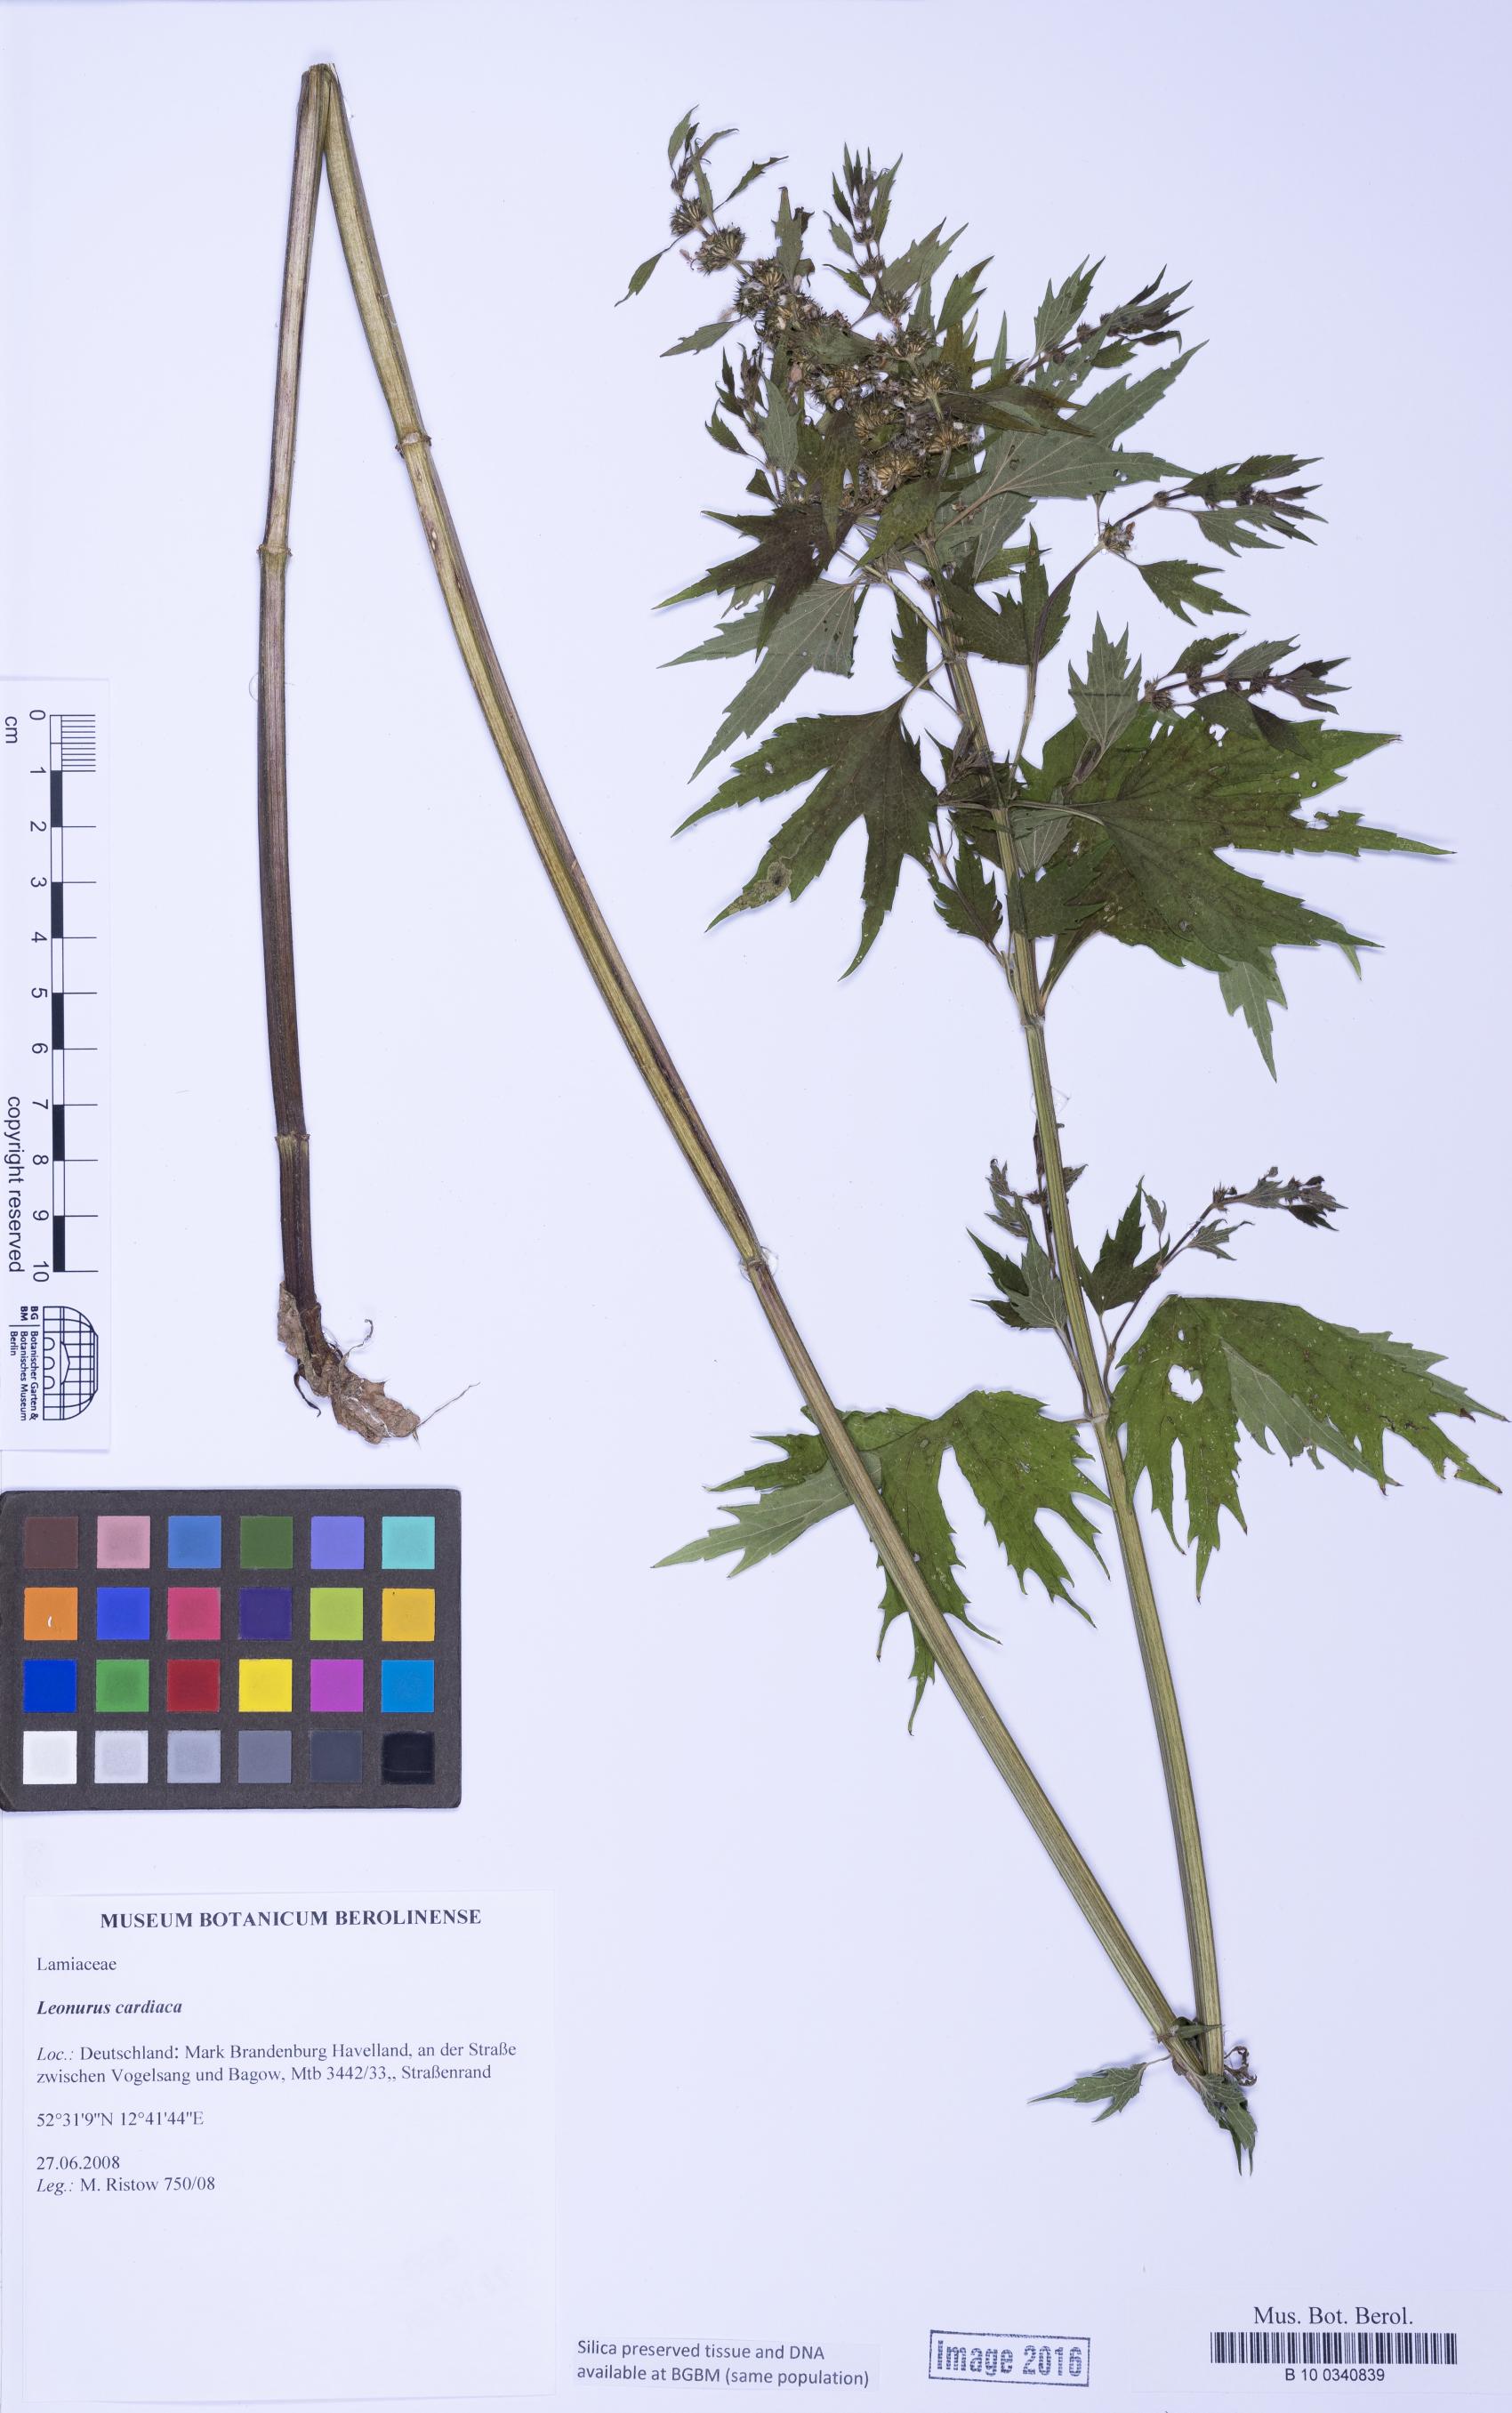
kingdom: Plantae
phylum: Tracheophyta
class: Magnoliopsida
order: Lamiales
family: Lamiaceae
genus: Leonurus
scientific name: Leonurus cardiaca
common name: Motherwort
